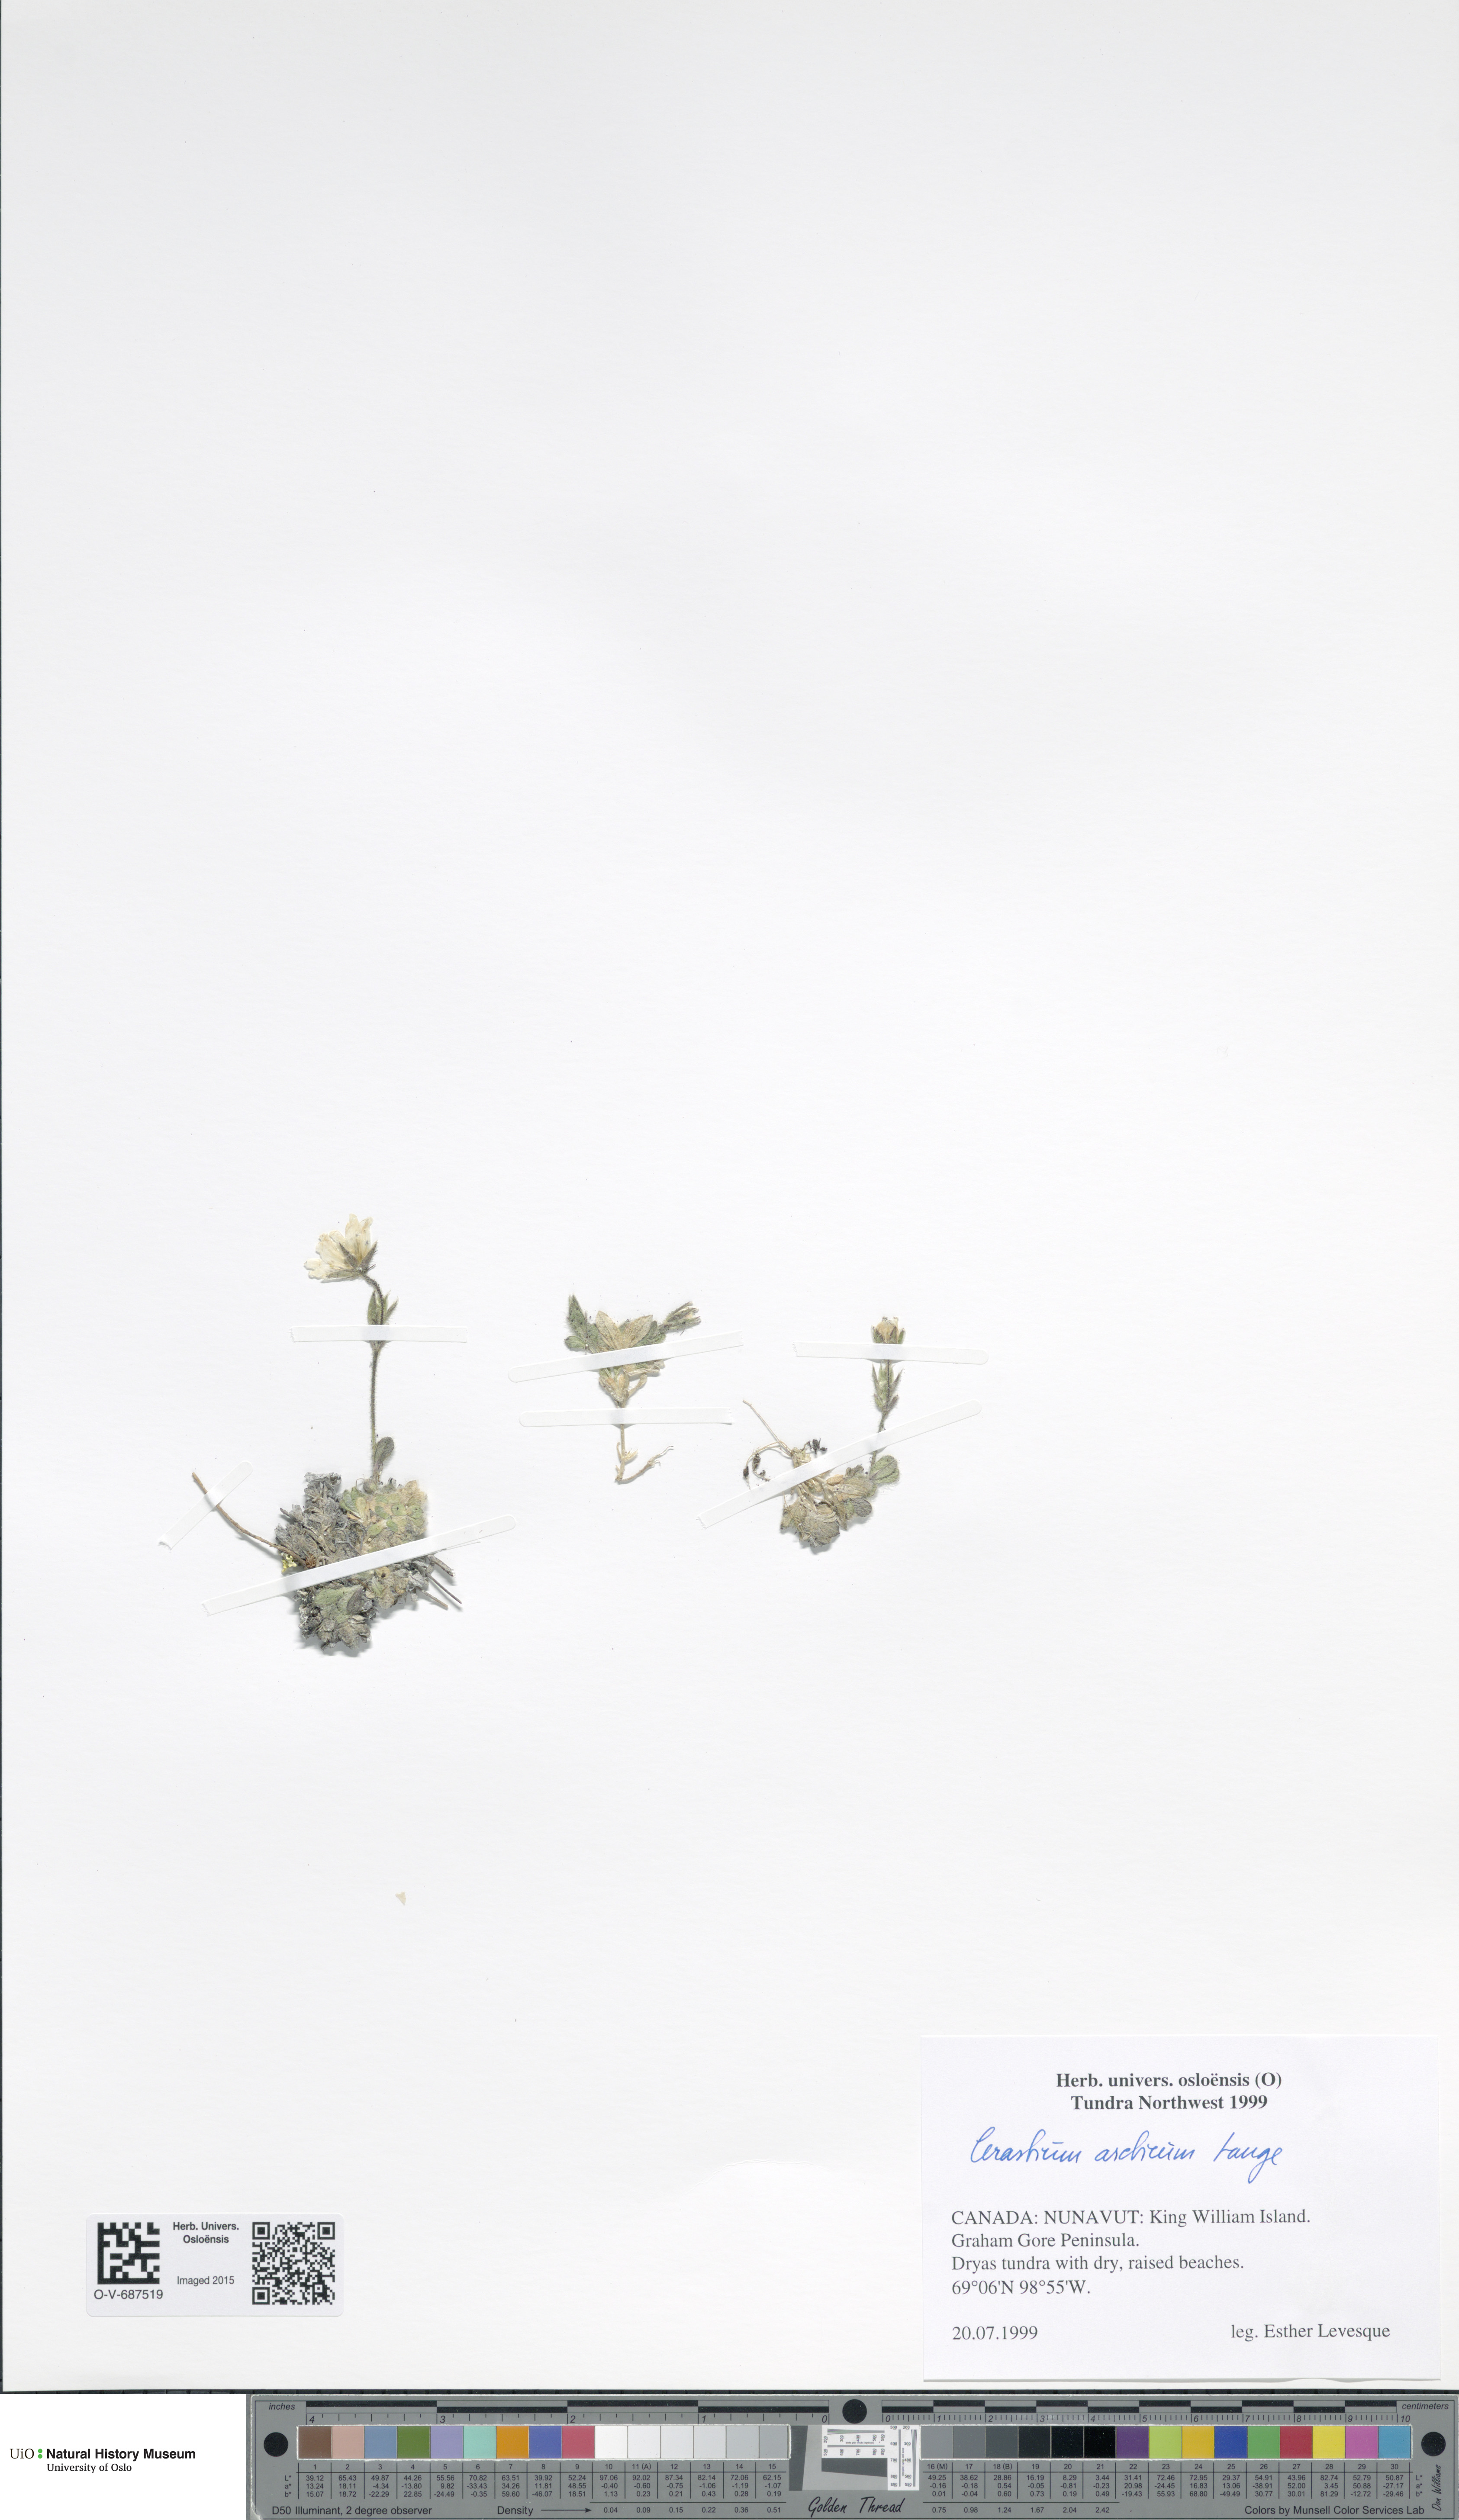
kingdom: Plantae
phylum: Tracheophyta
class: Magnoliopsida
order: Caryophyllales
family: Caryophyllaceae
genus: Cerastium
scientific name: Cerastium arcticum
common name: Arctic mouse-ear
